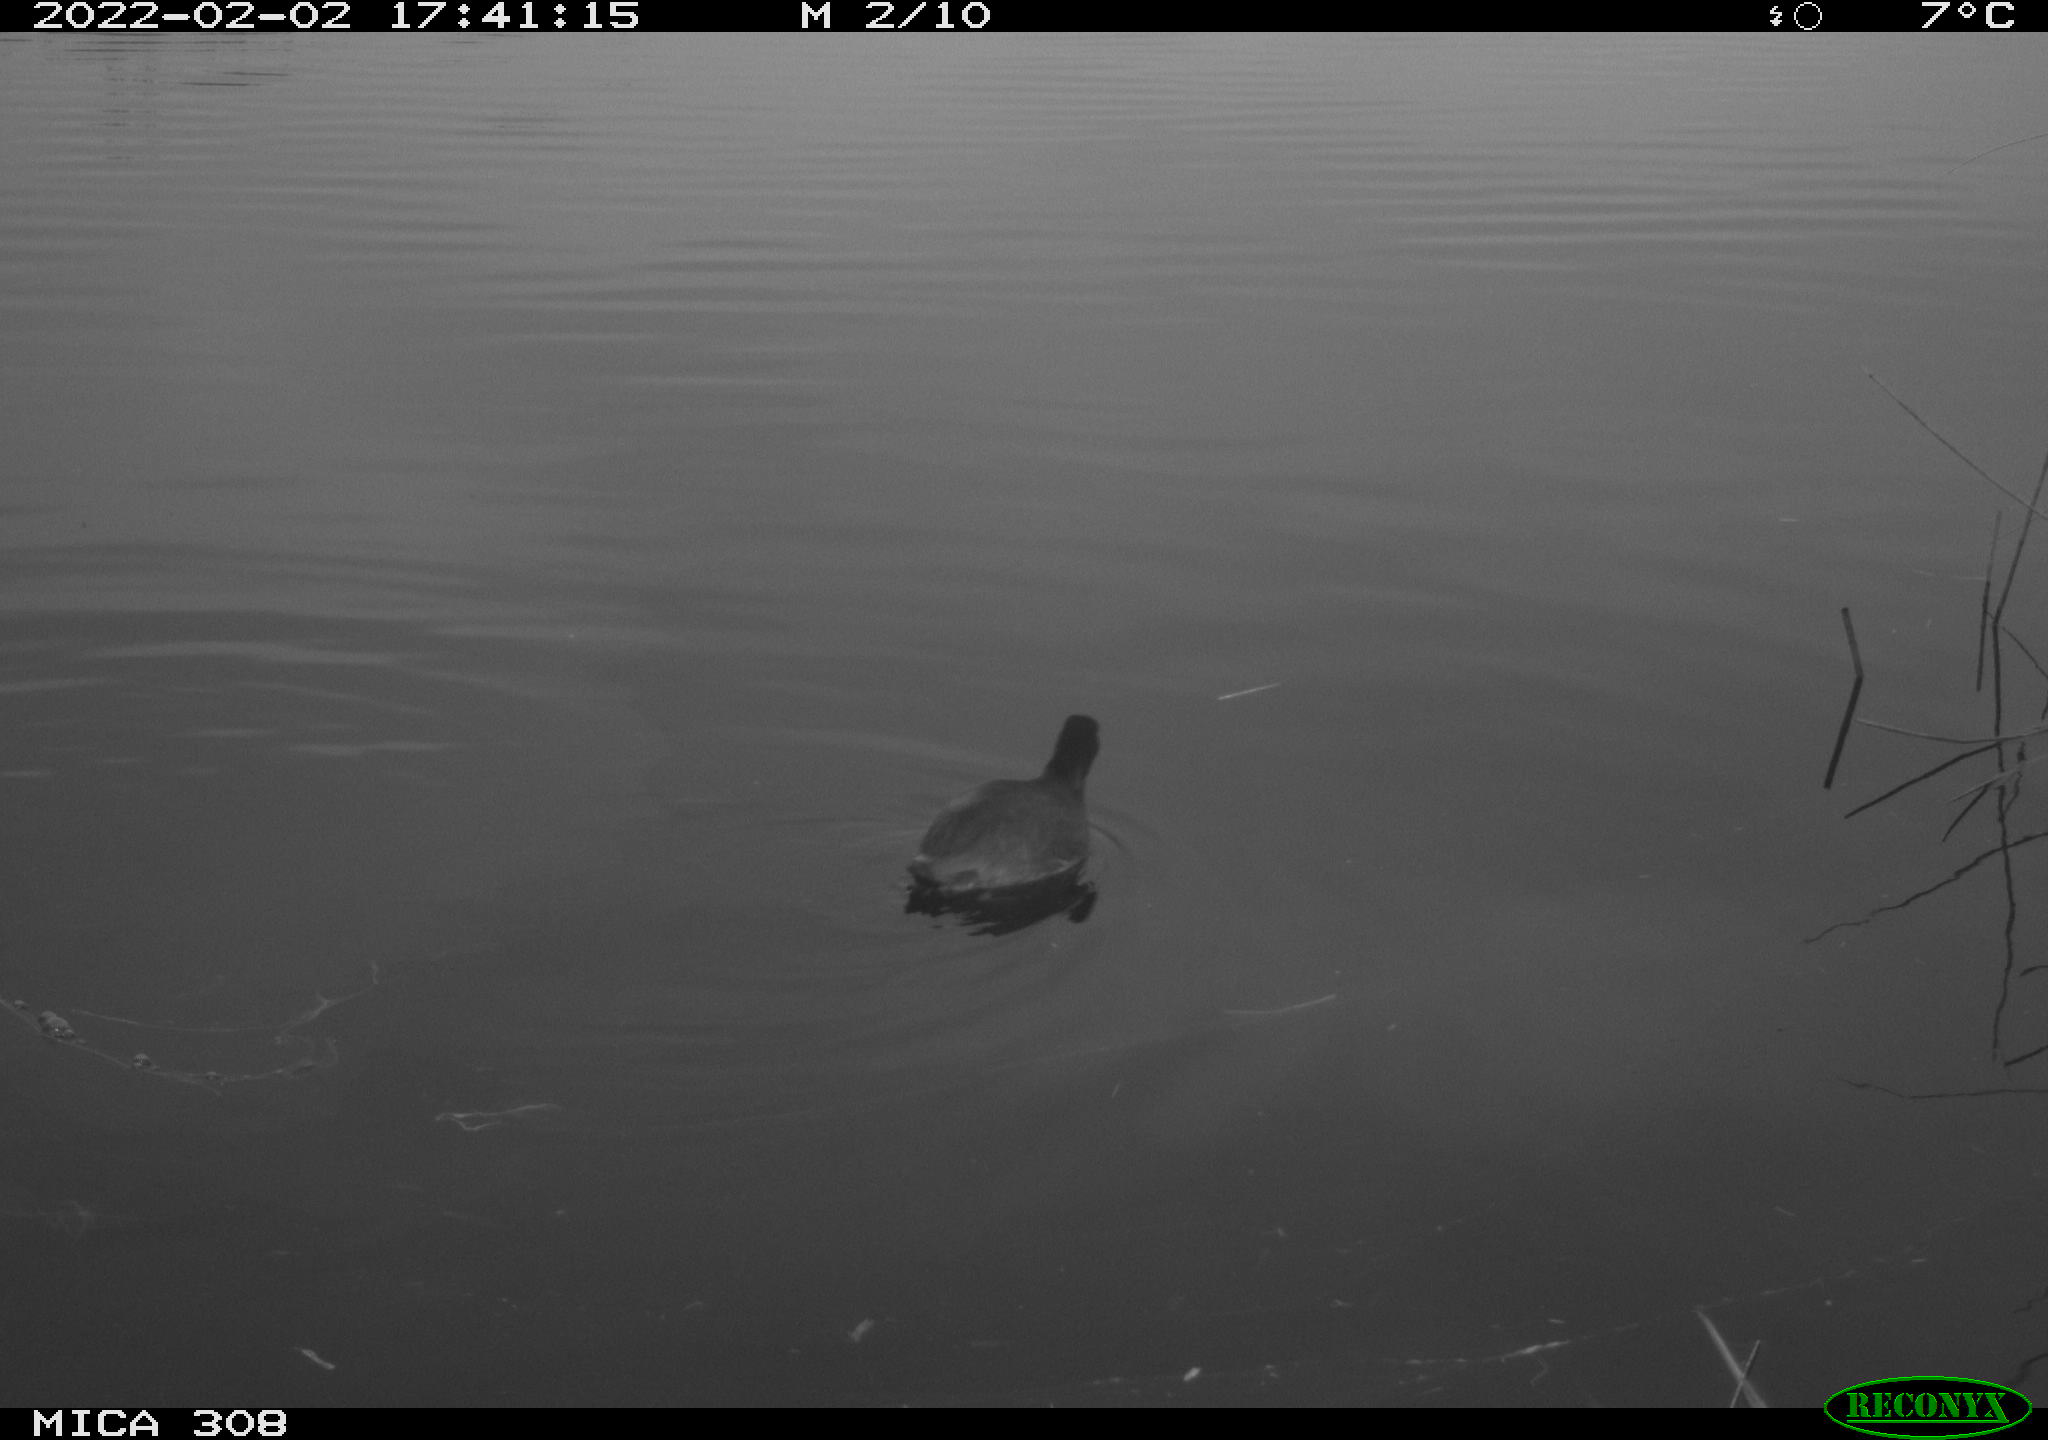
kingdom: Animalia
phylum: Chordata
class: Aves
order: Gruiformes
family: Rallidae
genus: Fulica
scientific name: Fulica atra
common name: Eurasian coot
